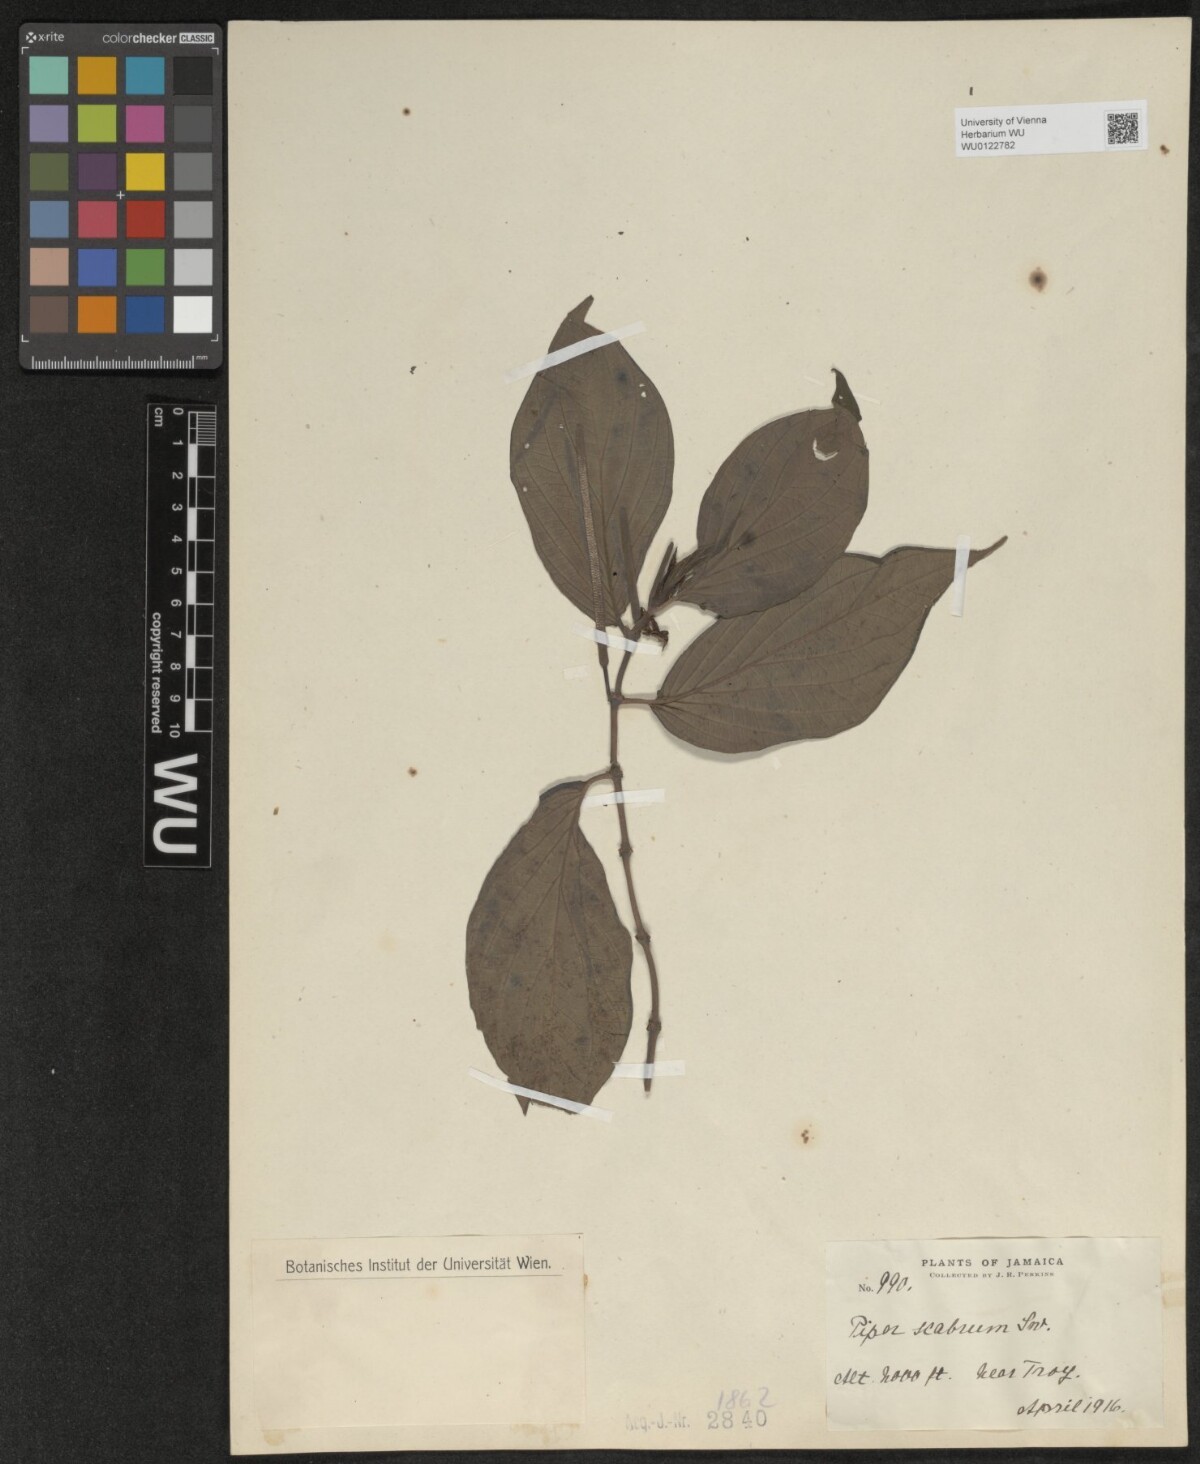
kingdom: Plantae
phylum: Tracheophyta
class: Magnoliopsida
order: Piperales
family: Piperaceae
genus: Piper
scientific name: Piper hispidum
